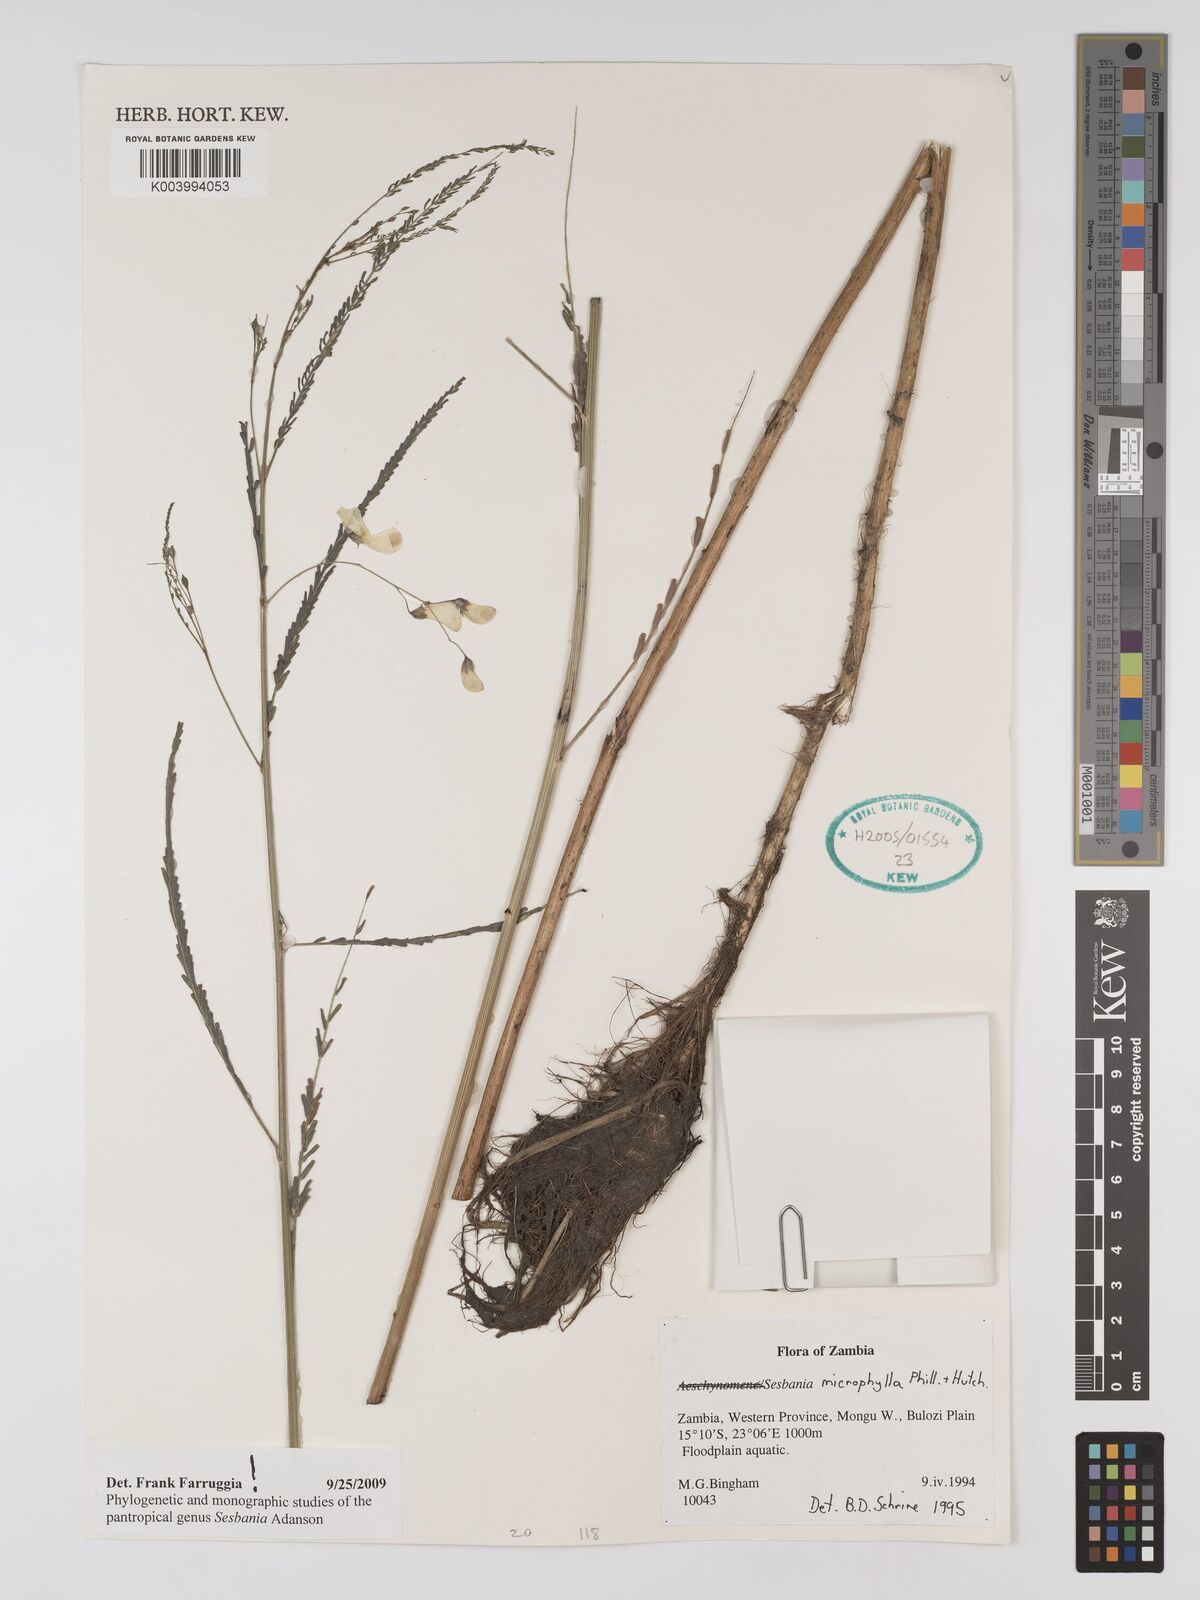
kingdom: Plantae
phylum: Tracheophyta
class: Magnoliopsida
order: Fabales
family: Fabaceae
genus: Sesbania
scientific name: Sesbania microphylla
